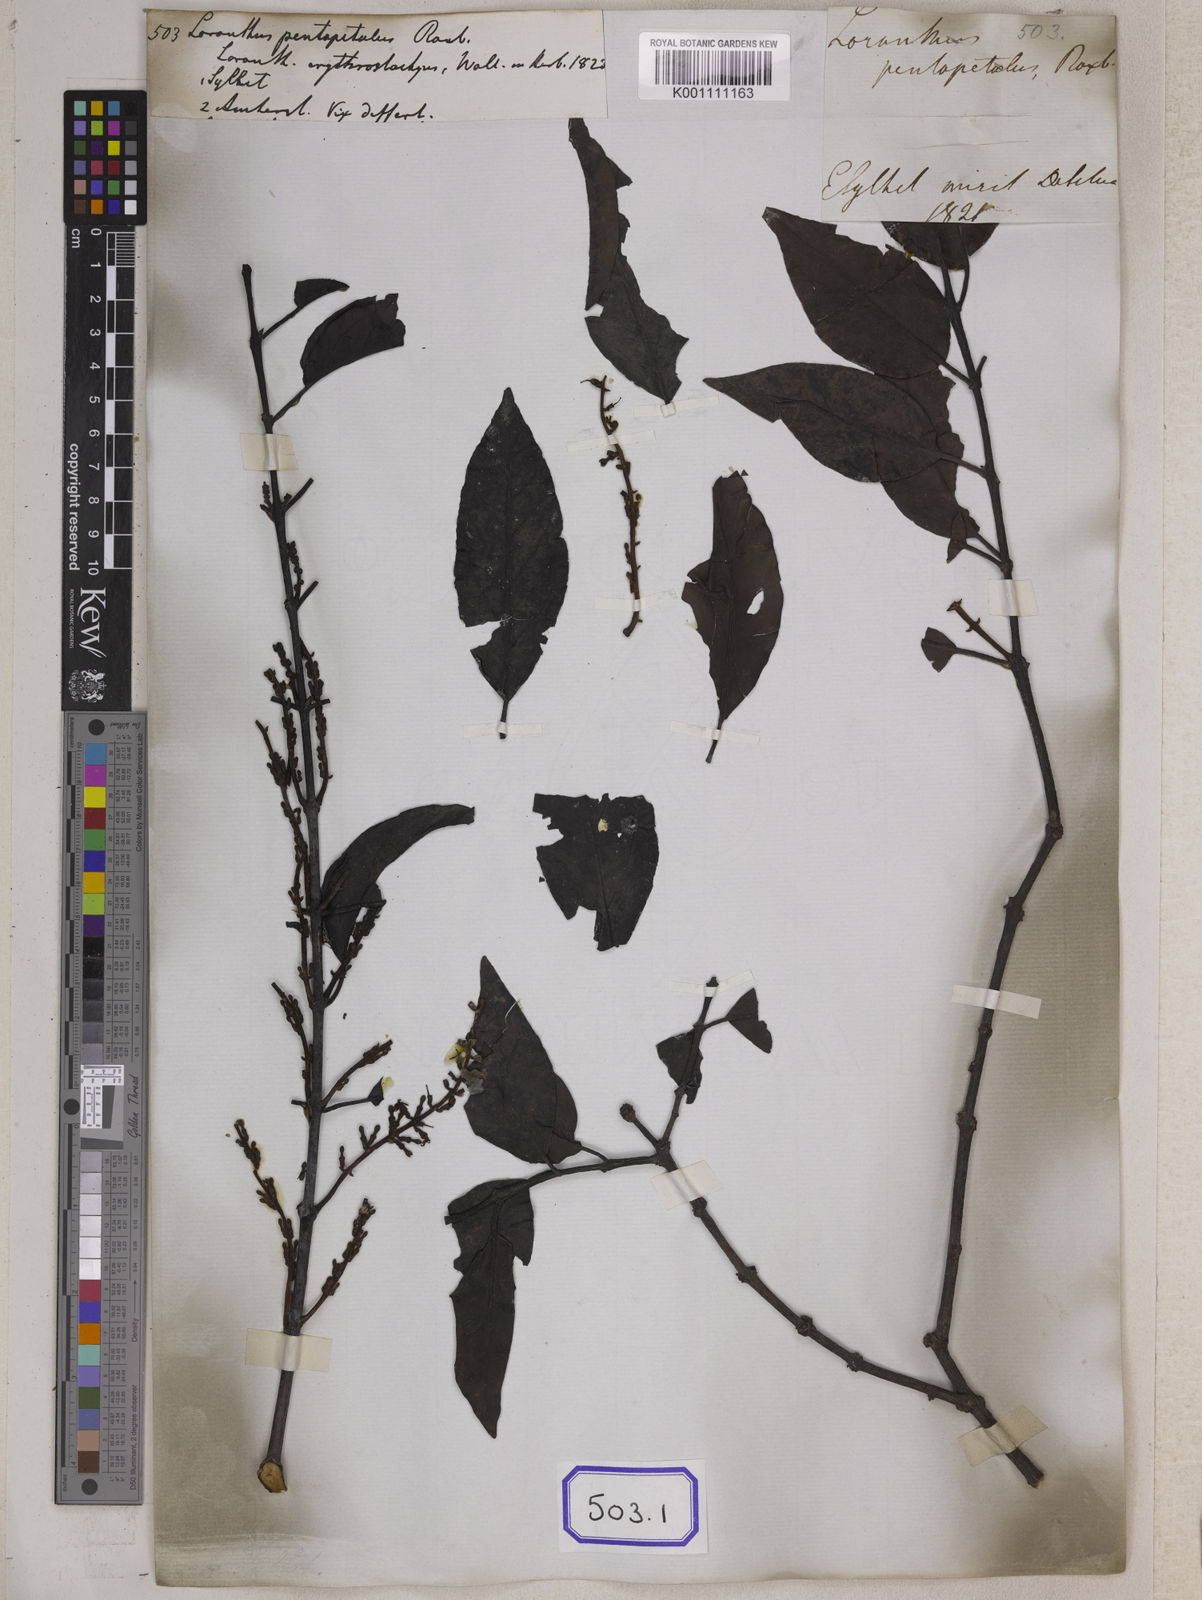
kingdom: Plantae
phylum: Tracheophyta
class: Magnoliopsida
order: Santalales
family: Loranthaceae
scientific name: Loranthaceae
